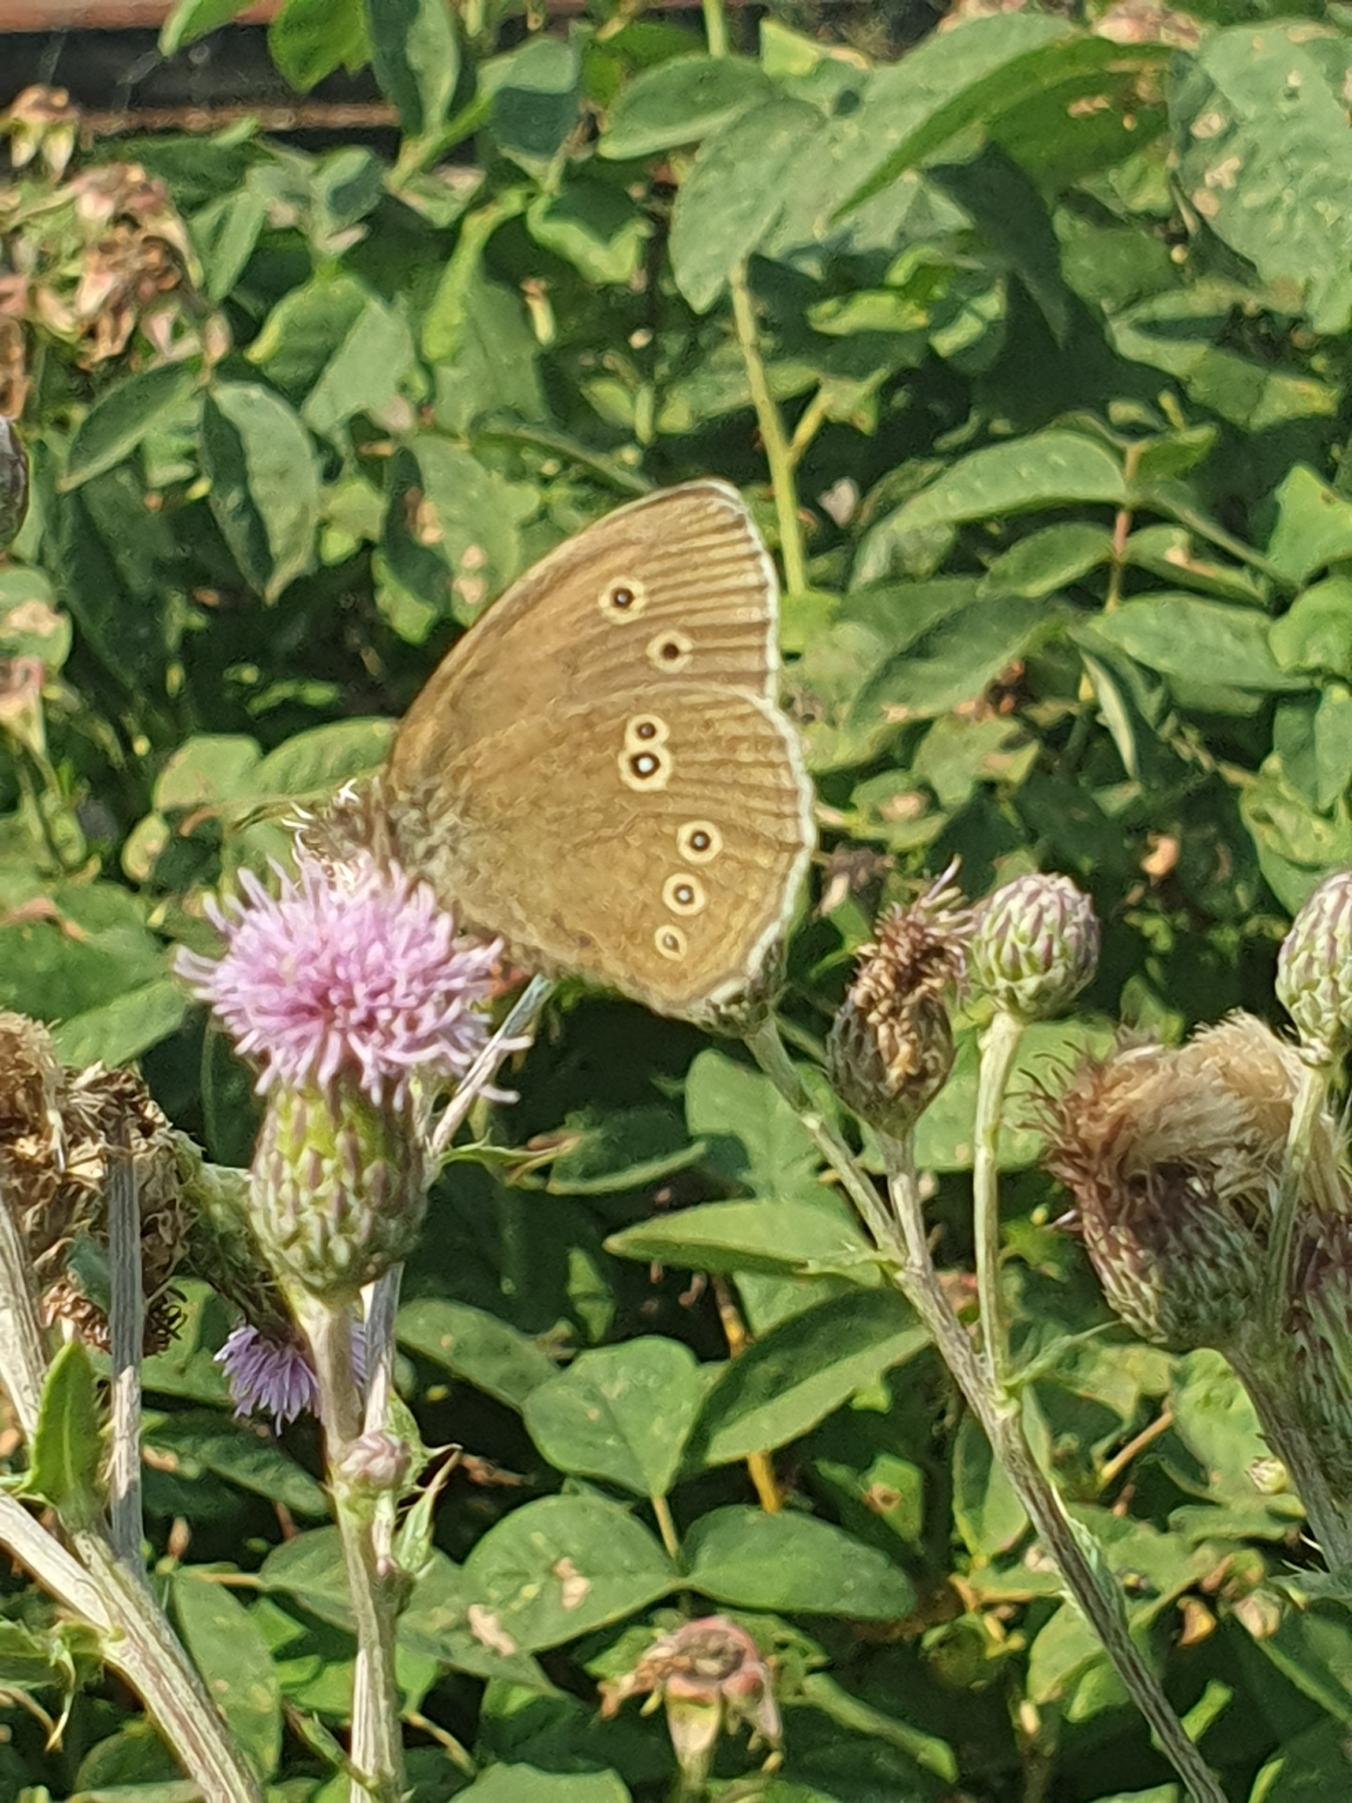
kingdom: Animalia
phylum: Arthropoda
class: Insecta
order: Lepidoptera
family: Nymphalidae
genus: Aphantopus
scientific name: Aphantopus hyperantus
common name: Engrandøje
